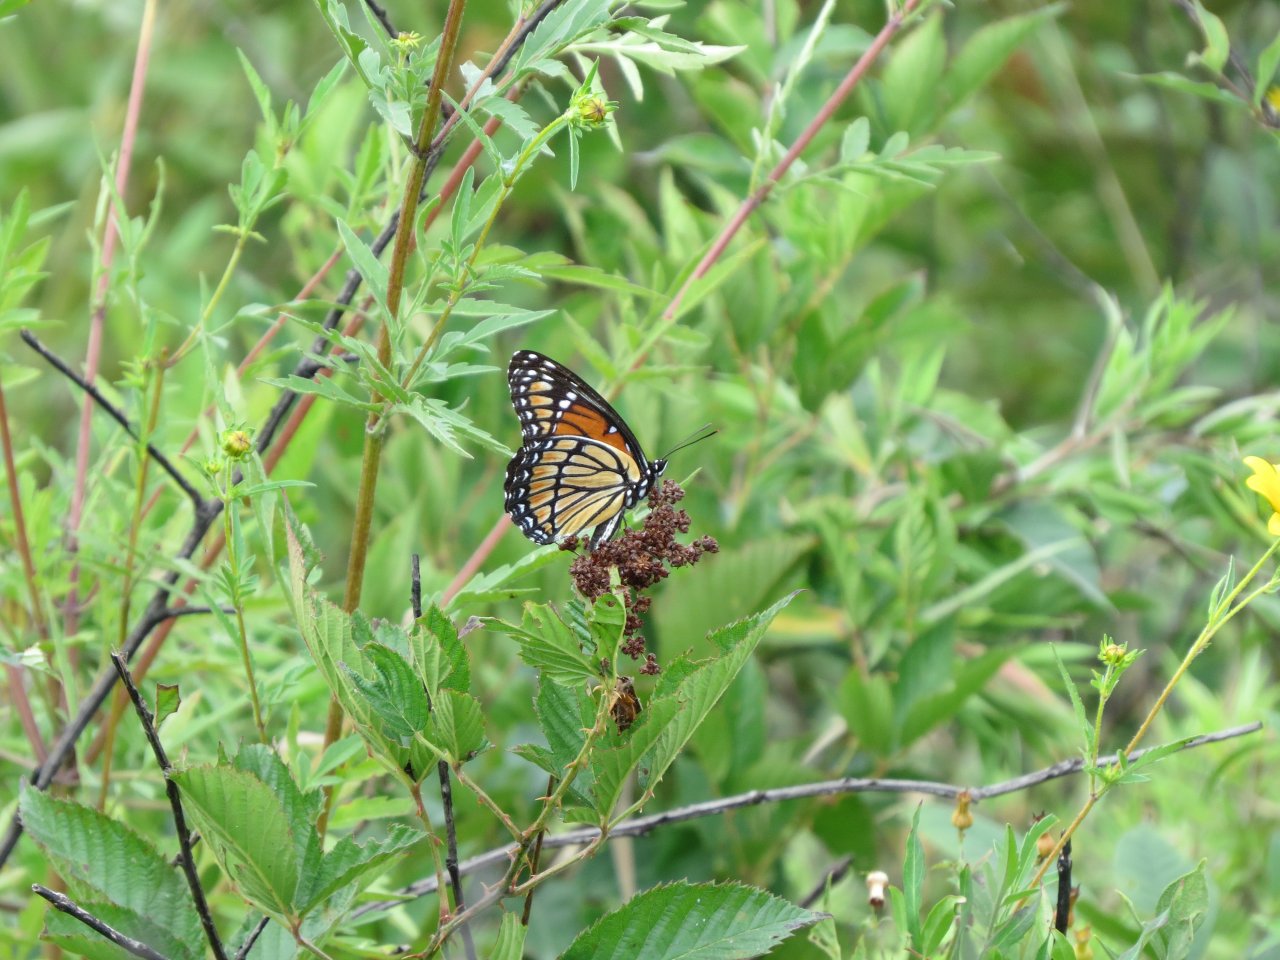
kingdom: Animalia
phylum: Arthropoda
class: Insecta
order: Lepidoptera
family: Nymphalidae
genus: Limenitis
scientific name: Limenitis archippus
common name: Viceroy
